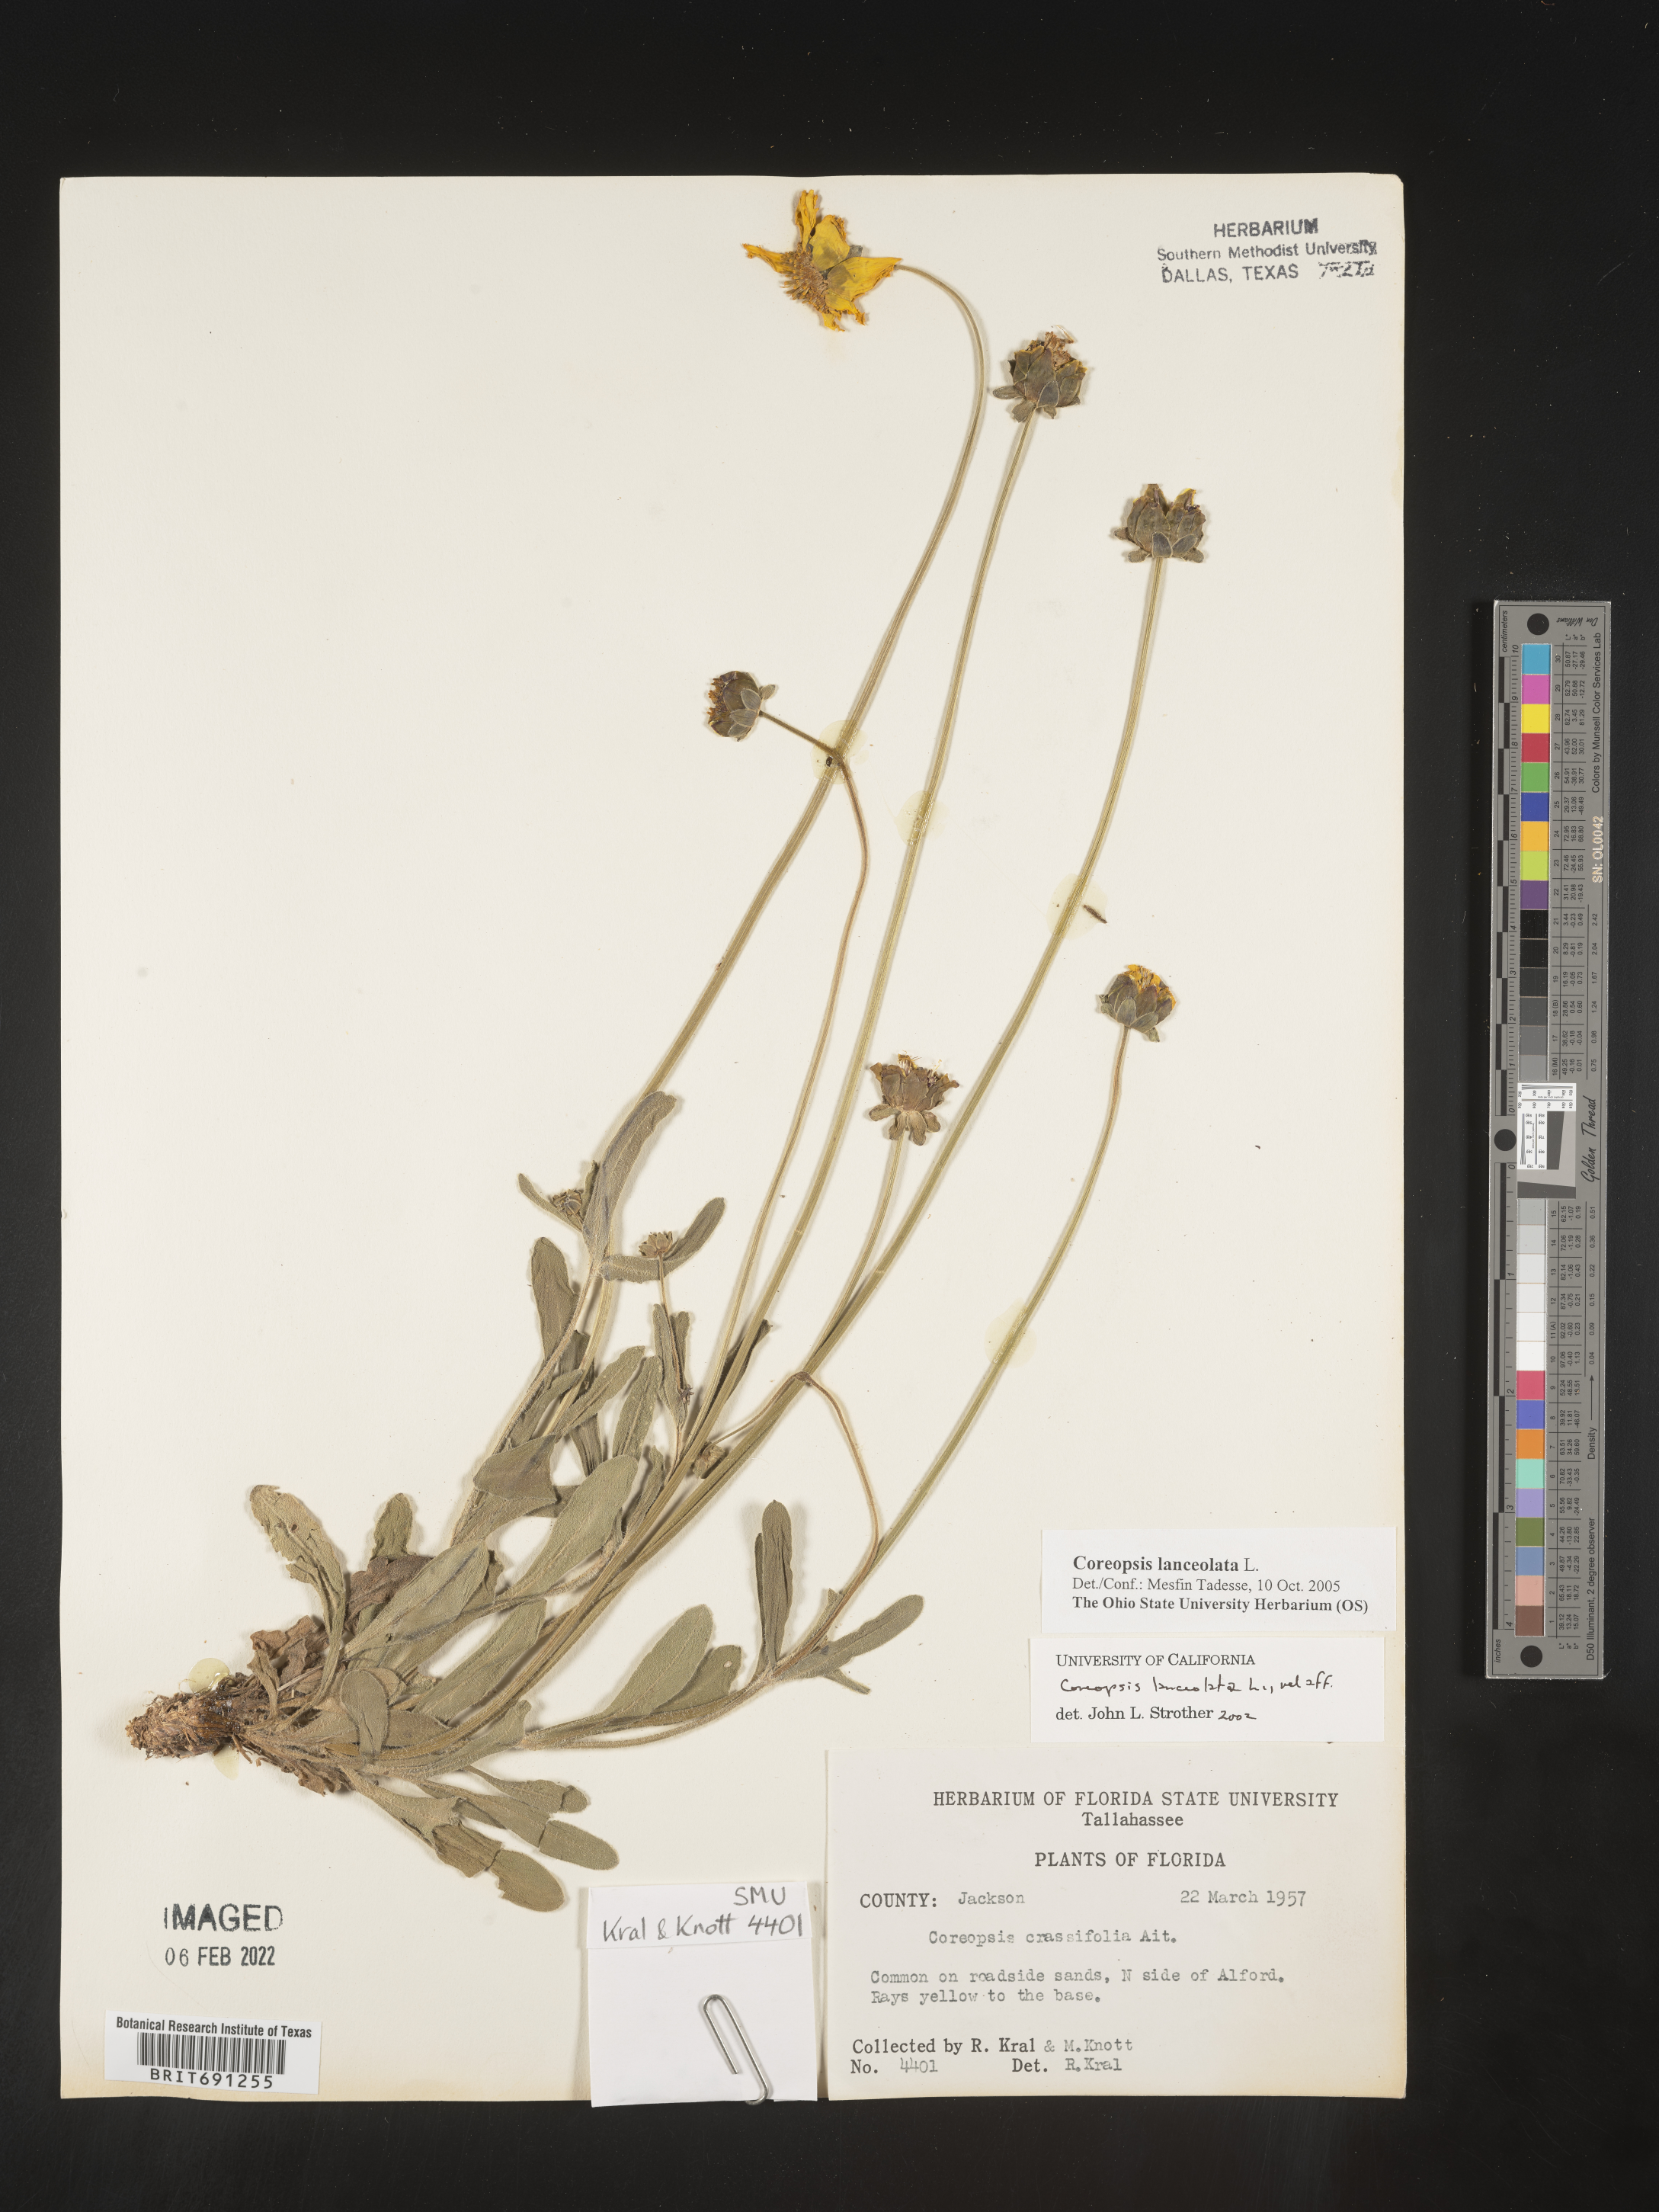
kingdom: Plantae
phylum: Tracheophyta
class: Magnoliopsida
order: Asterales
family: Asteraceae
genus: Coreopsis
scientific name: Coreopsis lanceolata
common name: Garden coreopsis
